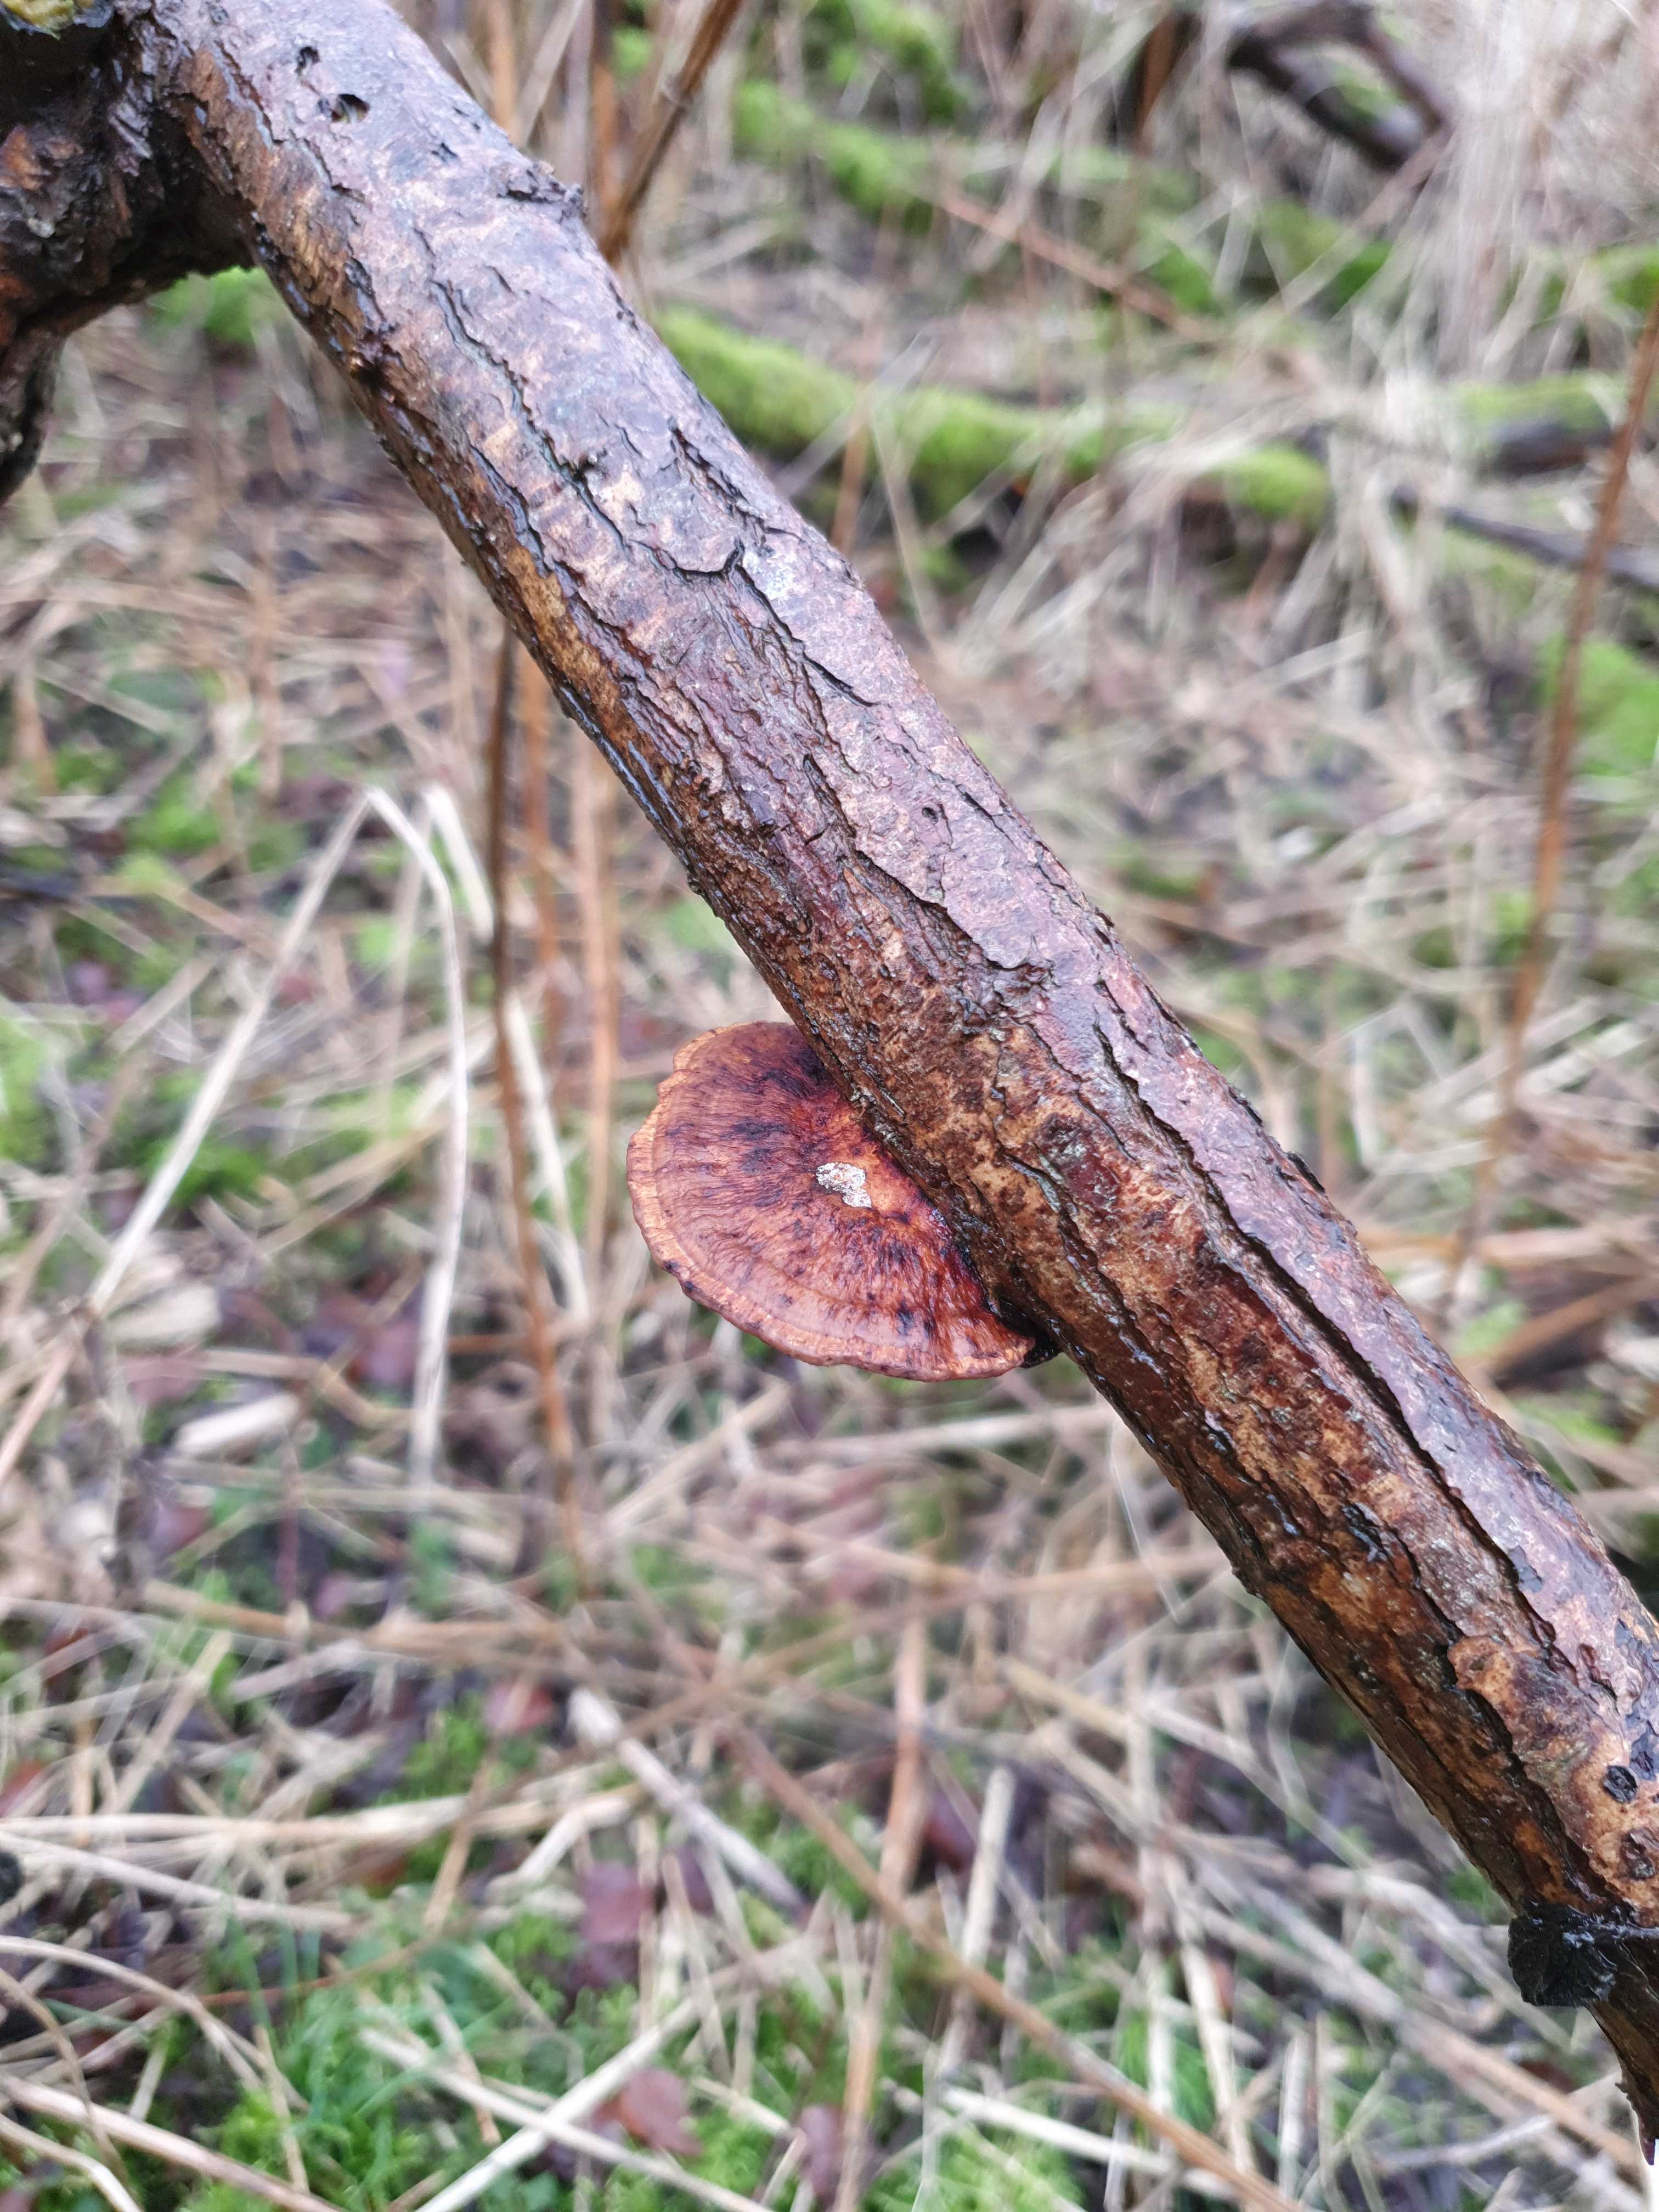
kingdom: Fungi
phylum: Basidiomycota
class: Agaricomycetes
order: Polyporales
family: Polyporaceae
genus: Daedaleopsis
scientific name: Daedaleopsis confragosa
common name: rødmende læderporesvamp
